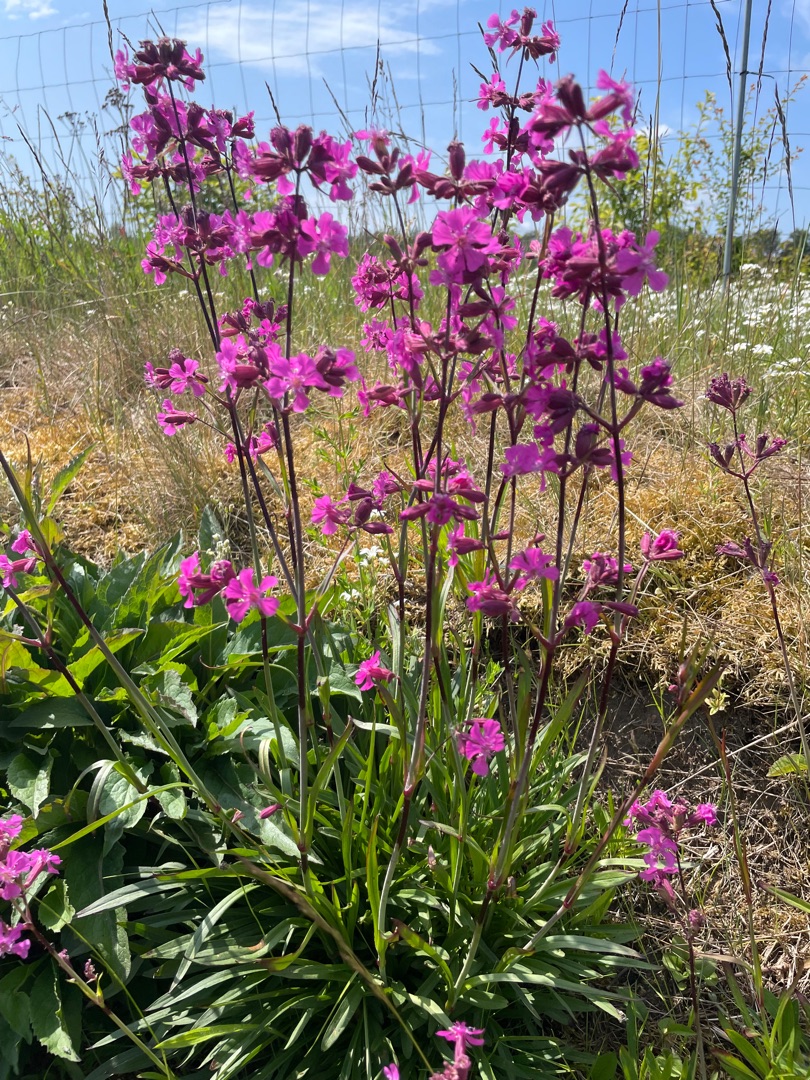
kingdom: Plantae
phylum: Tracheophyta
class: Magnoliopsida
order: Caryophyllales
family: Caryophyllaceae
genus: Viscaria
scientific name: Viscaria vulgaris
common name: Tjærenellike
